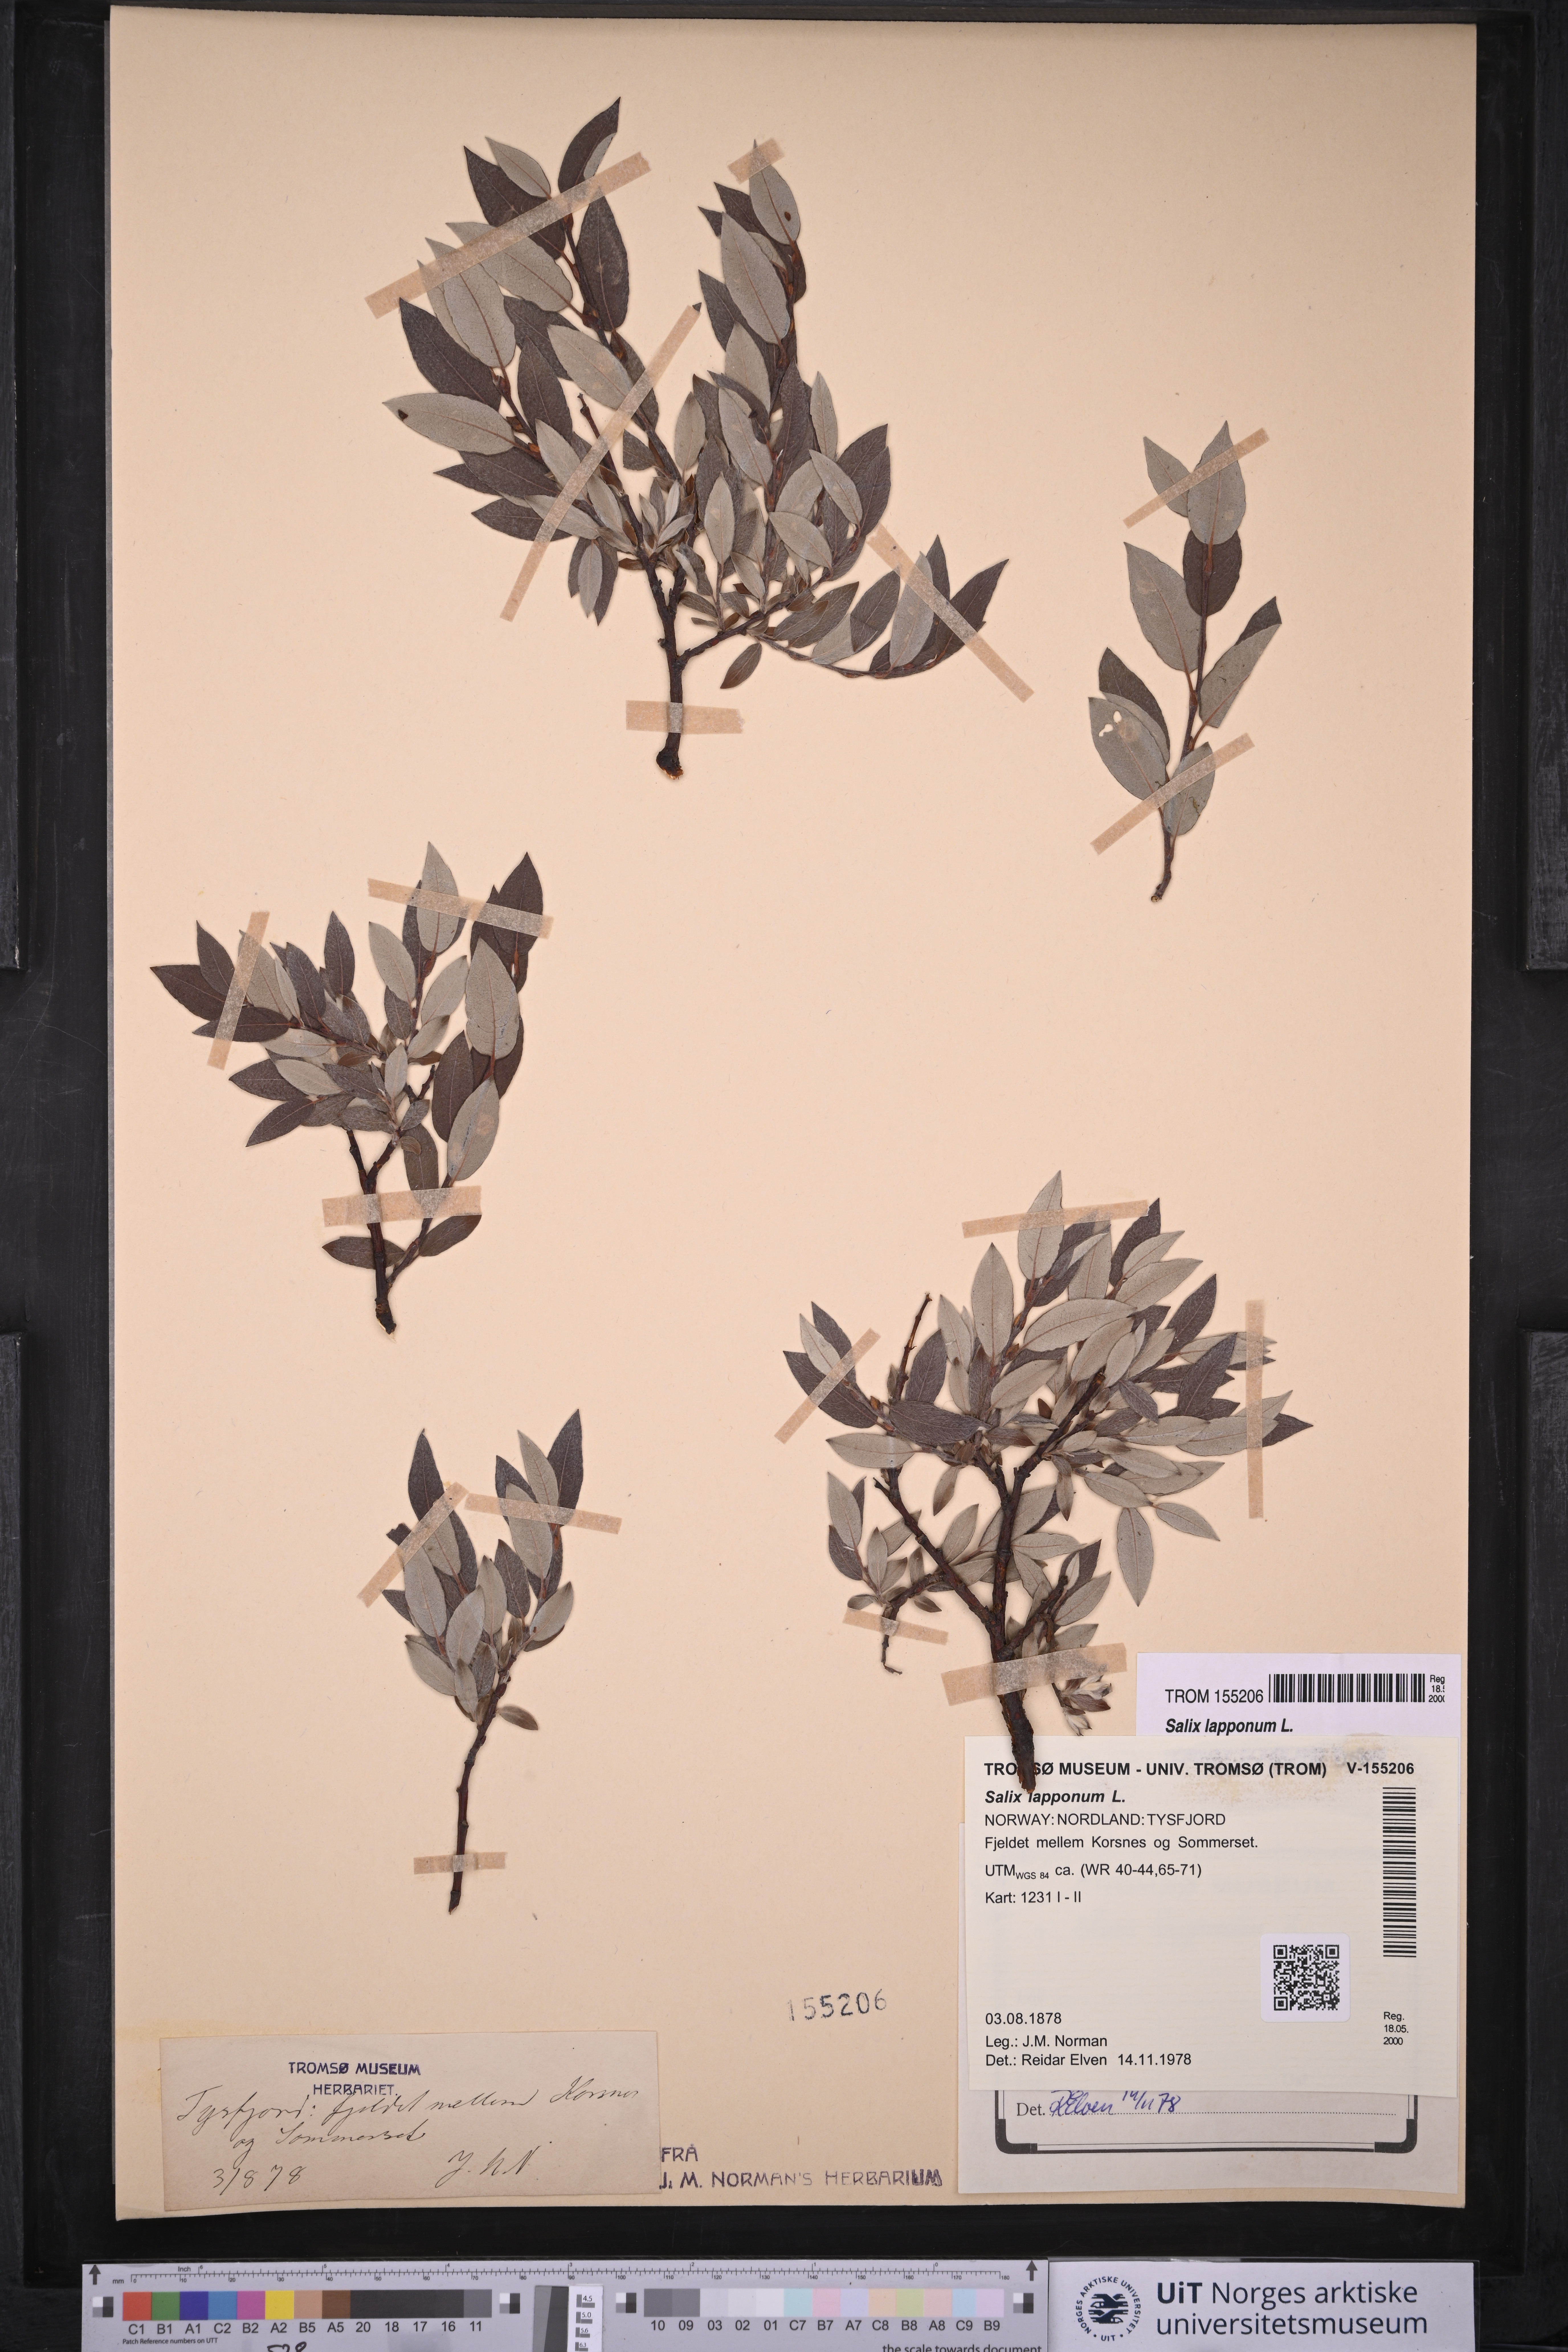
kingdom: Plantae
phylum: Tracheophyta
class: Magnoliopsida
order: Malpighiales
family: Salicaceae
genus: Salix
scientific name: Salix lapponum
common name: Downy willow
